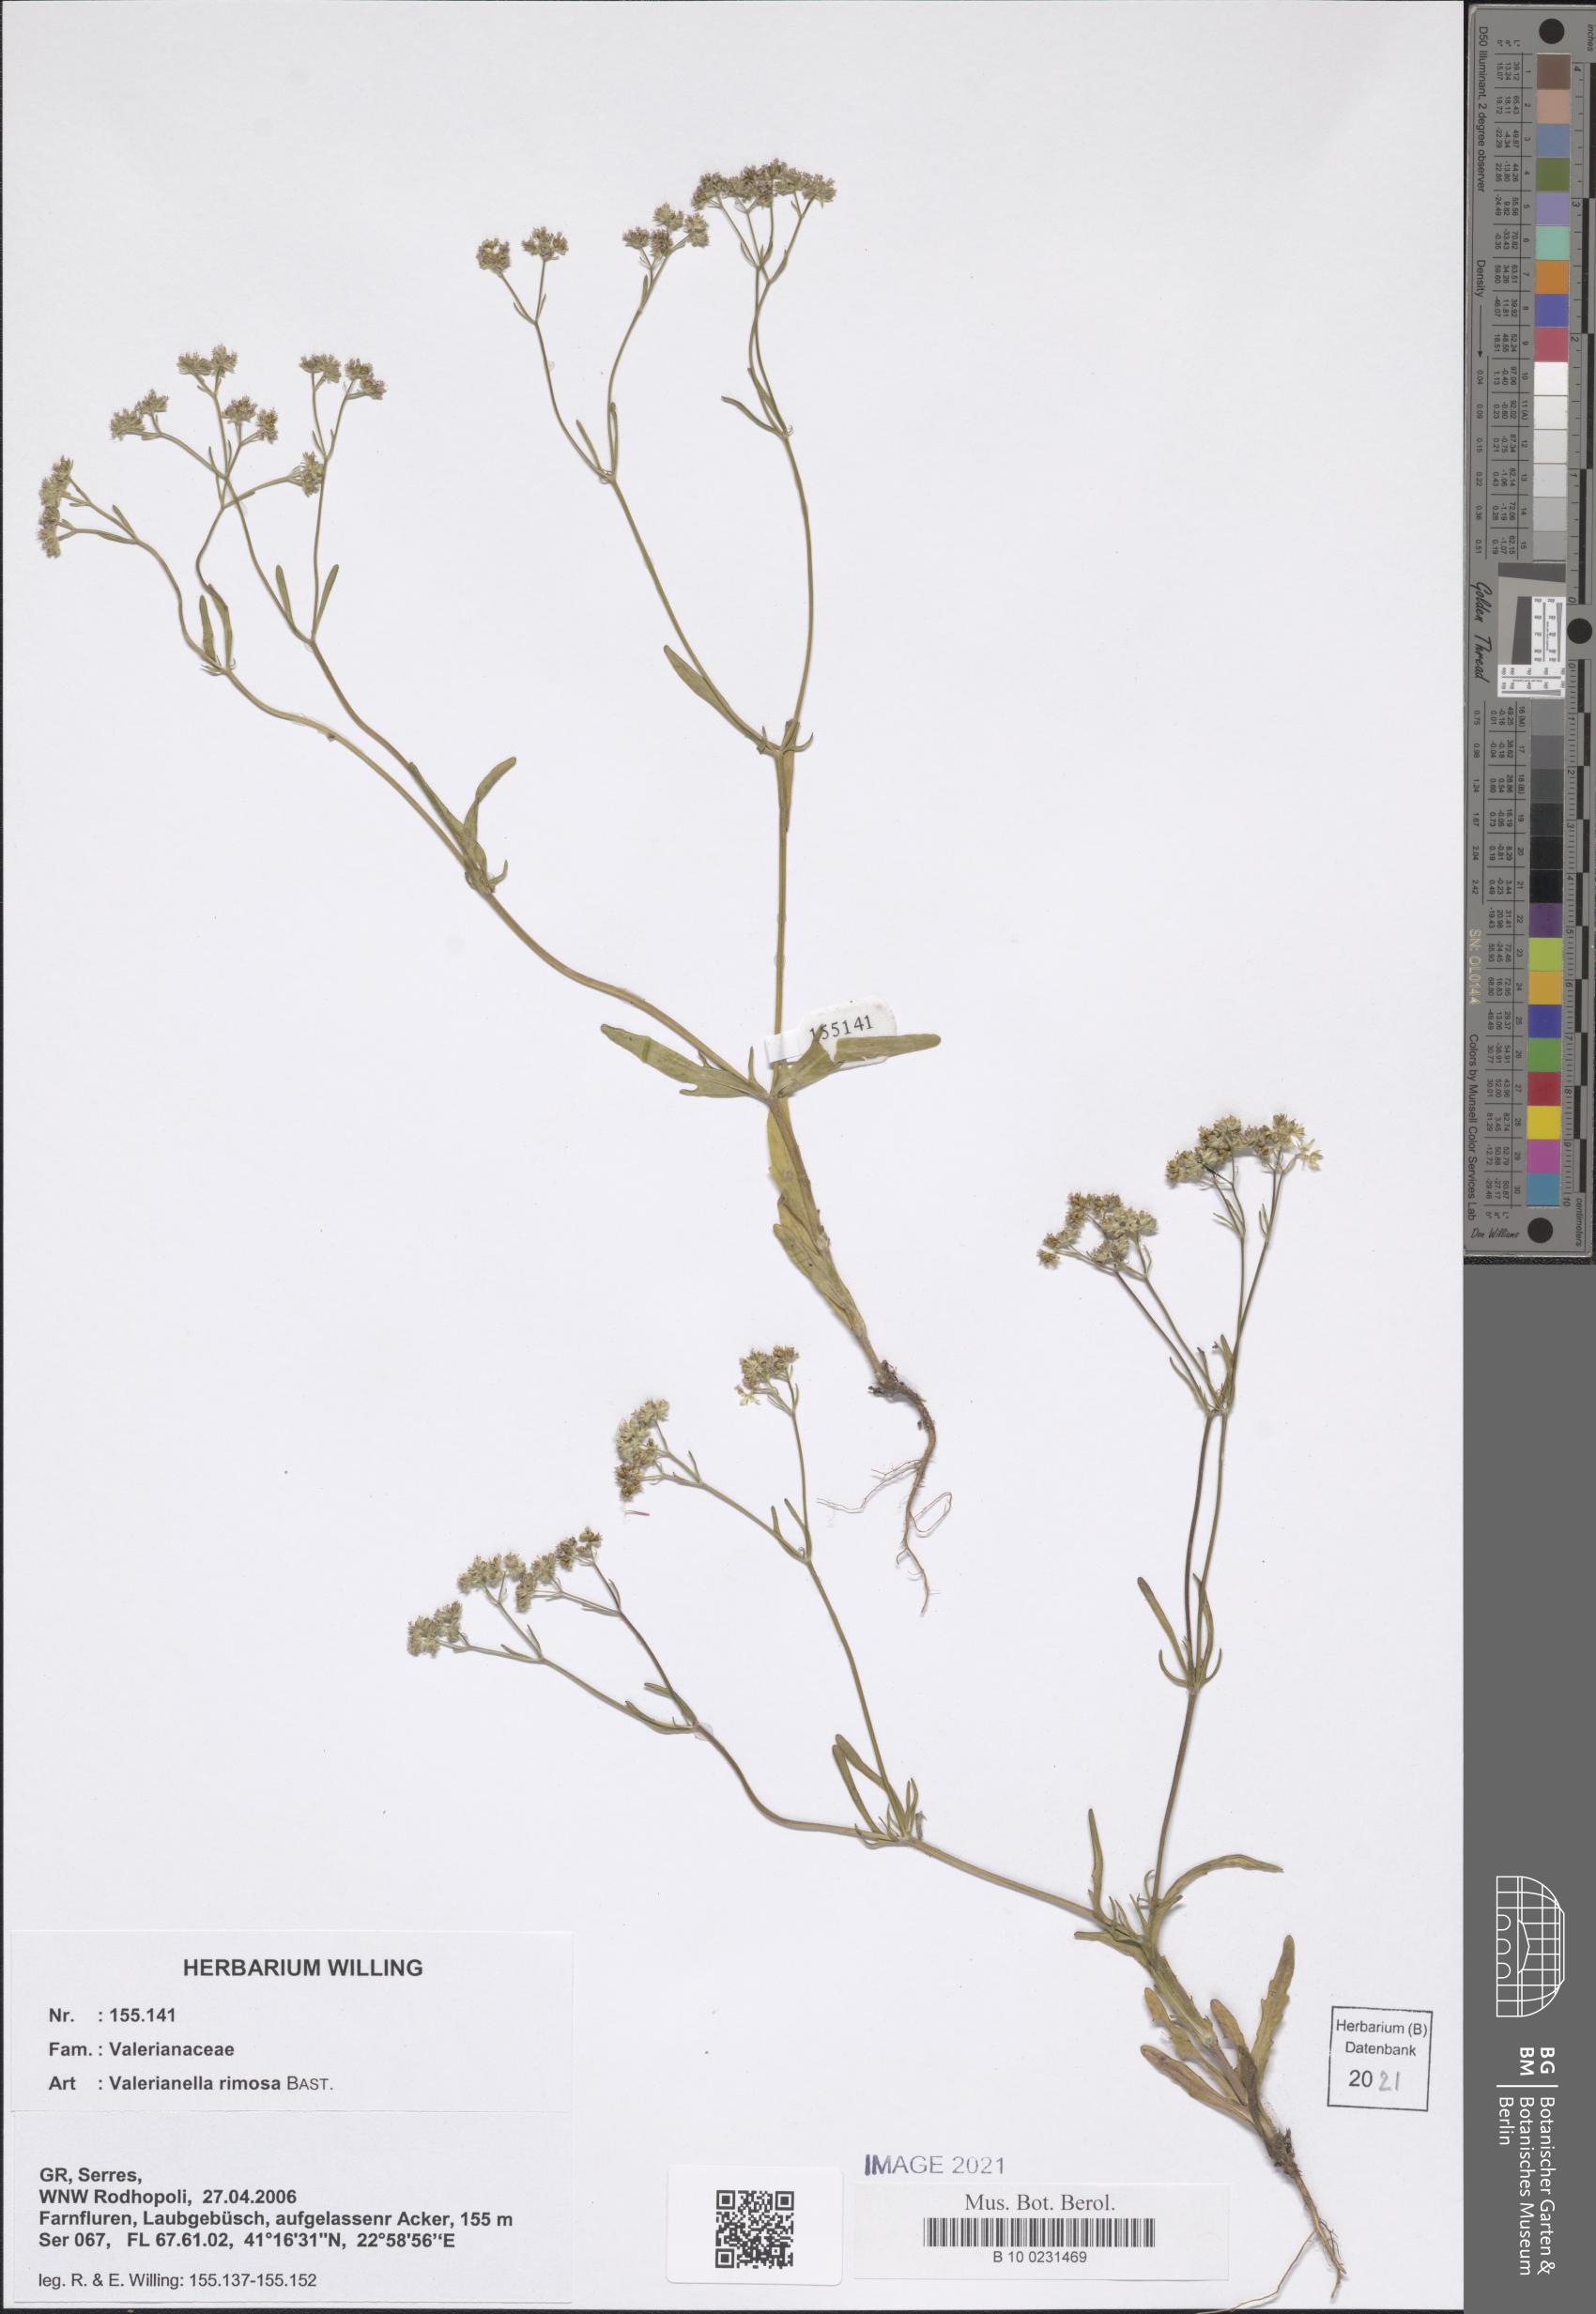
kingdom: Plantae
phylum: Tracheophyta
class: Magnoliopsida
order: Dipsacales
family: Caprifoliaceae
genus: Valerianella
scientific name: Valerianella rimosa
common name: Broad-fruited cornsalad
